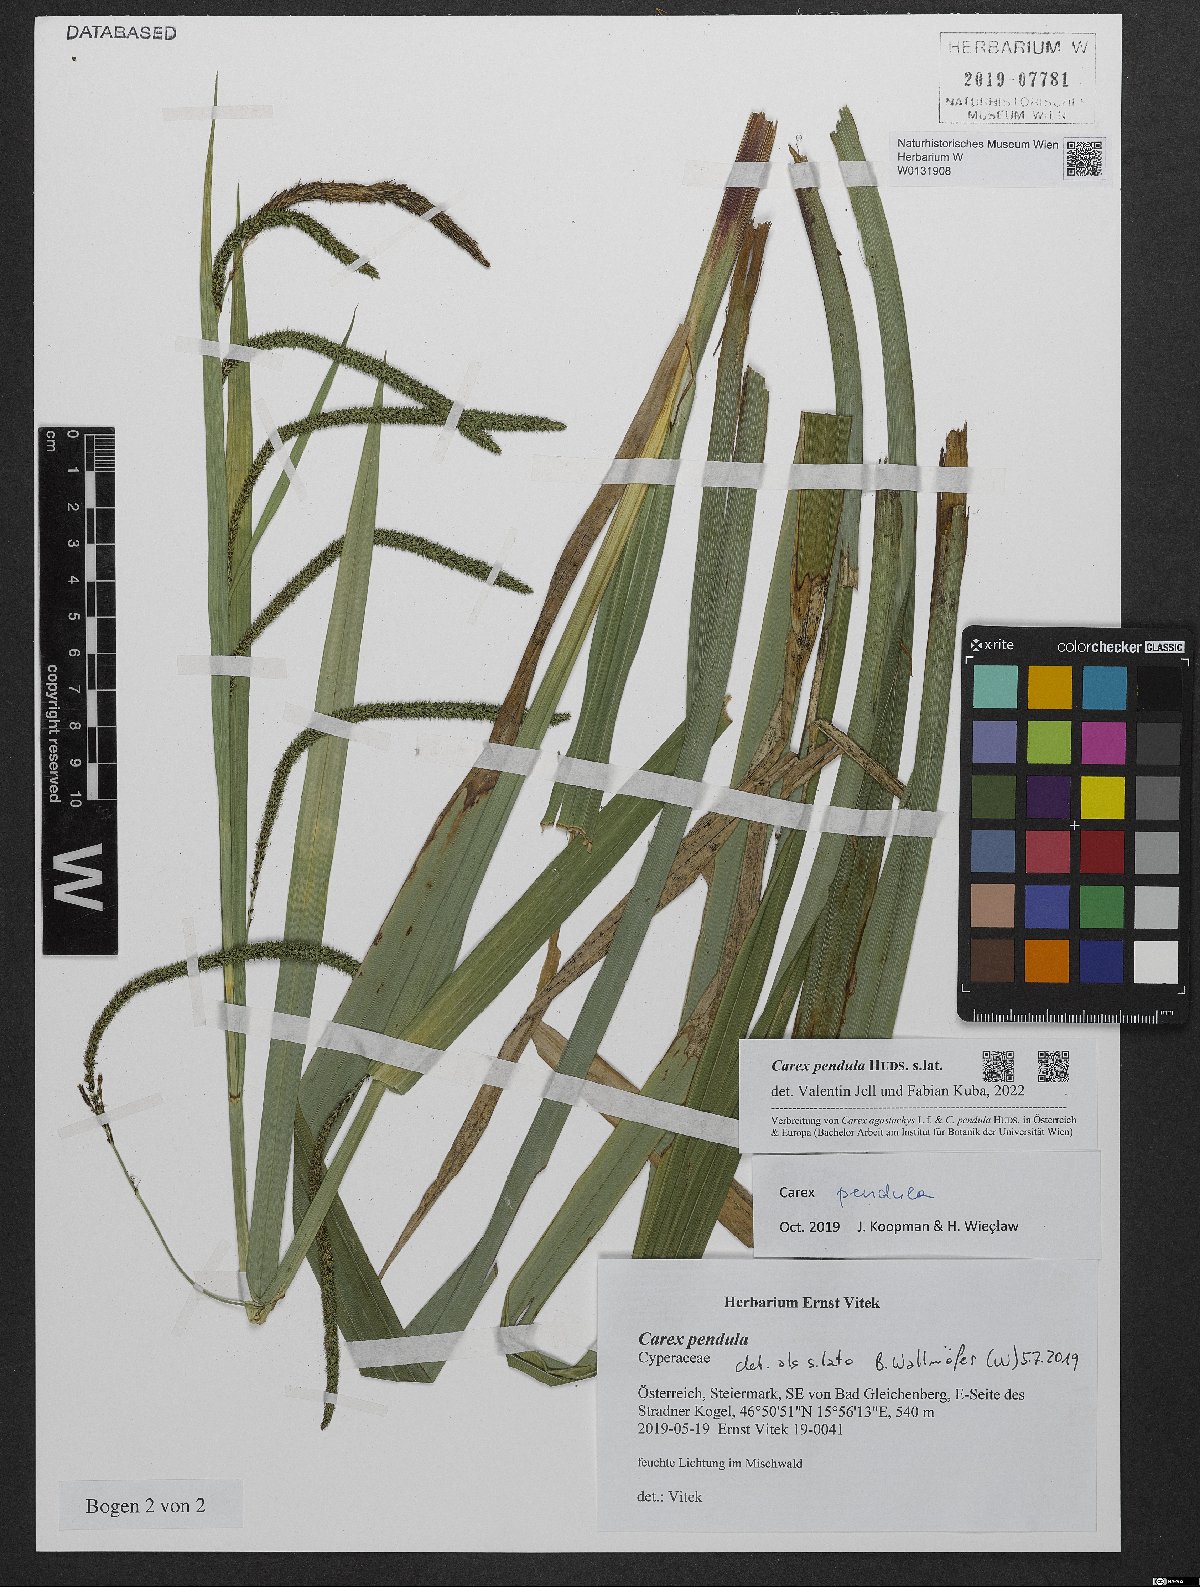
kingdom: Plantae
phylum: Tracheophyta
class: Liliopsida
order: Poales
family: Cyperaceae
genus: Carex
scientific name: Carex pendula
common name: Pendulous sedge
